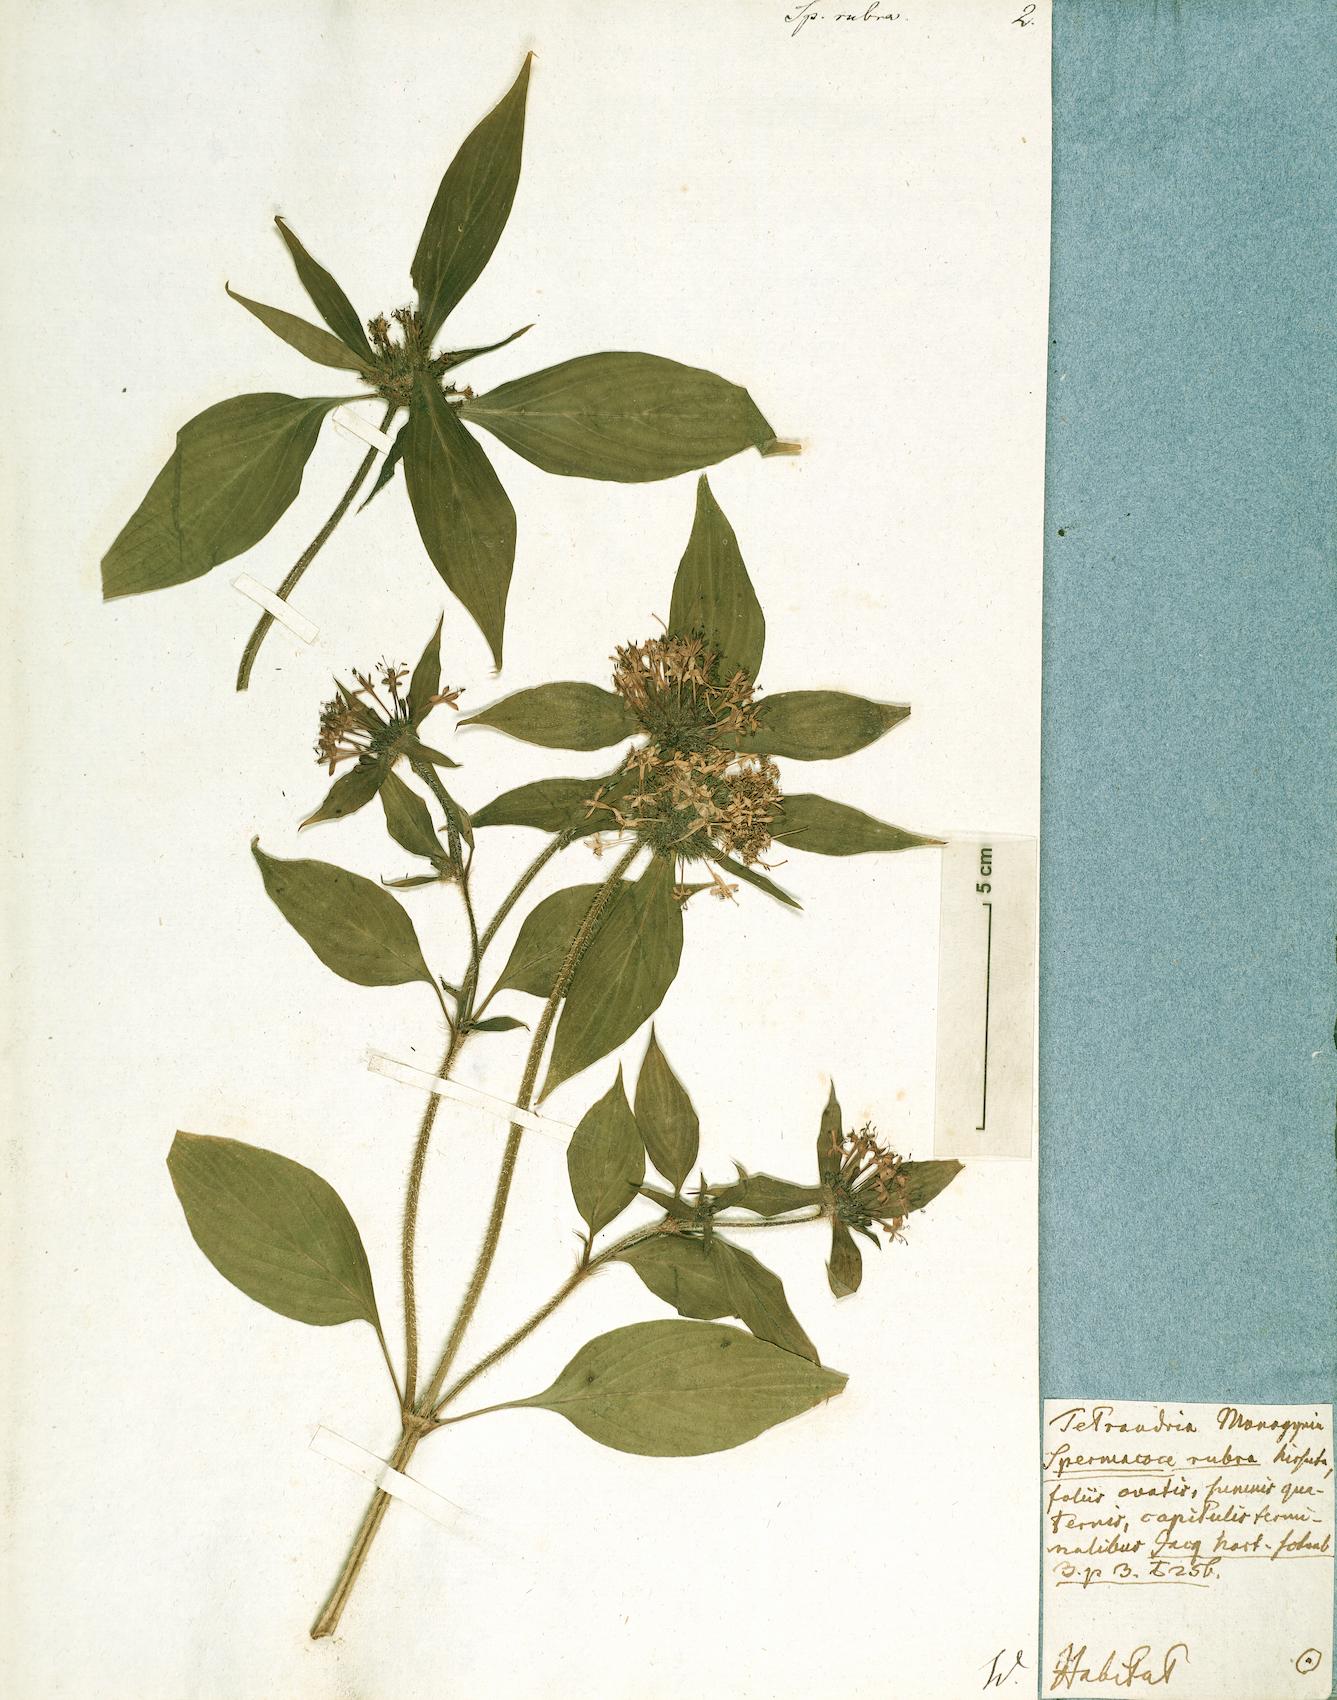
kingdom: Plantae
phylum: Tracheophyta
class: Magnoliopsida
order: Gentianales
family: Rubiaceae
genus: Crusea
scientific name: Crusea hispida
